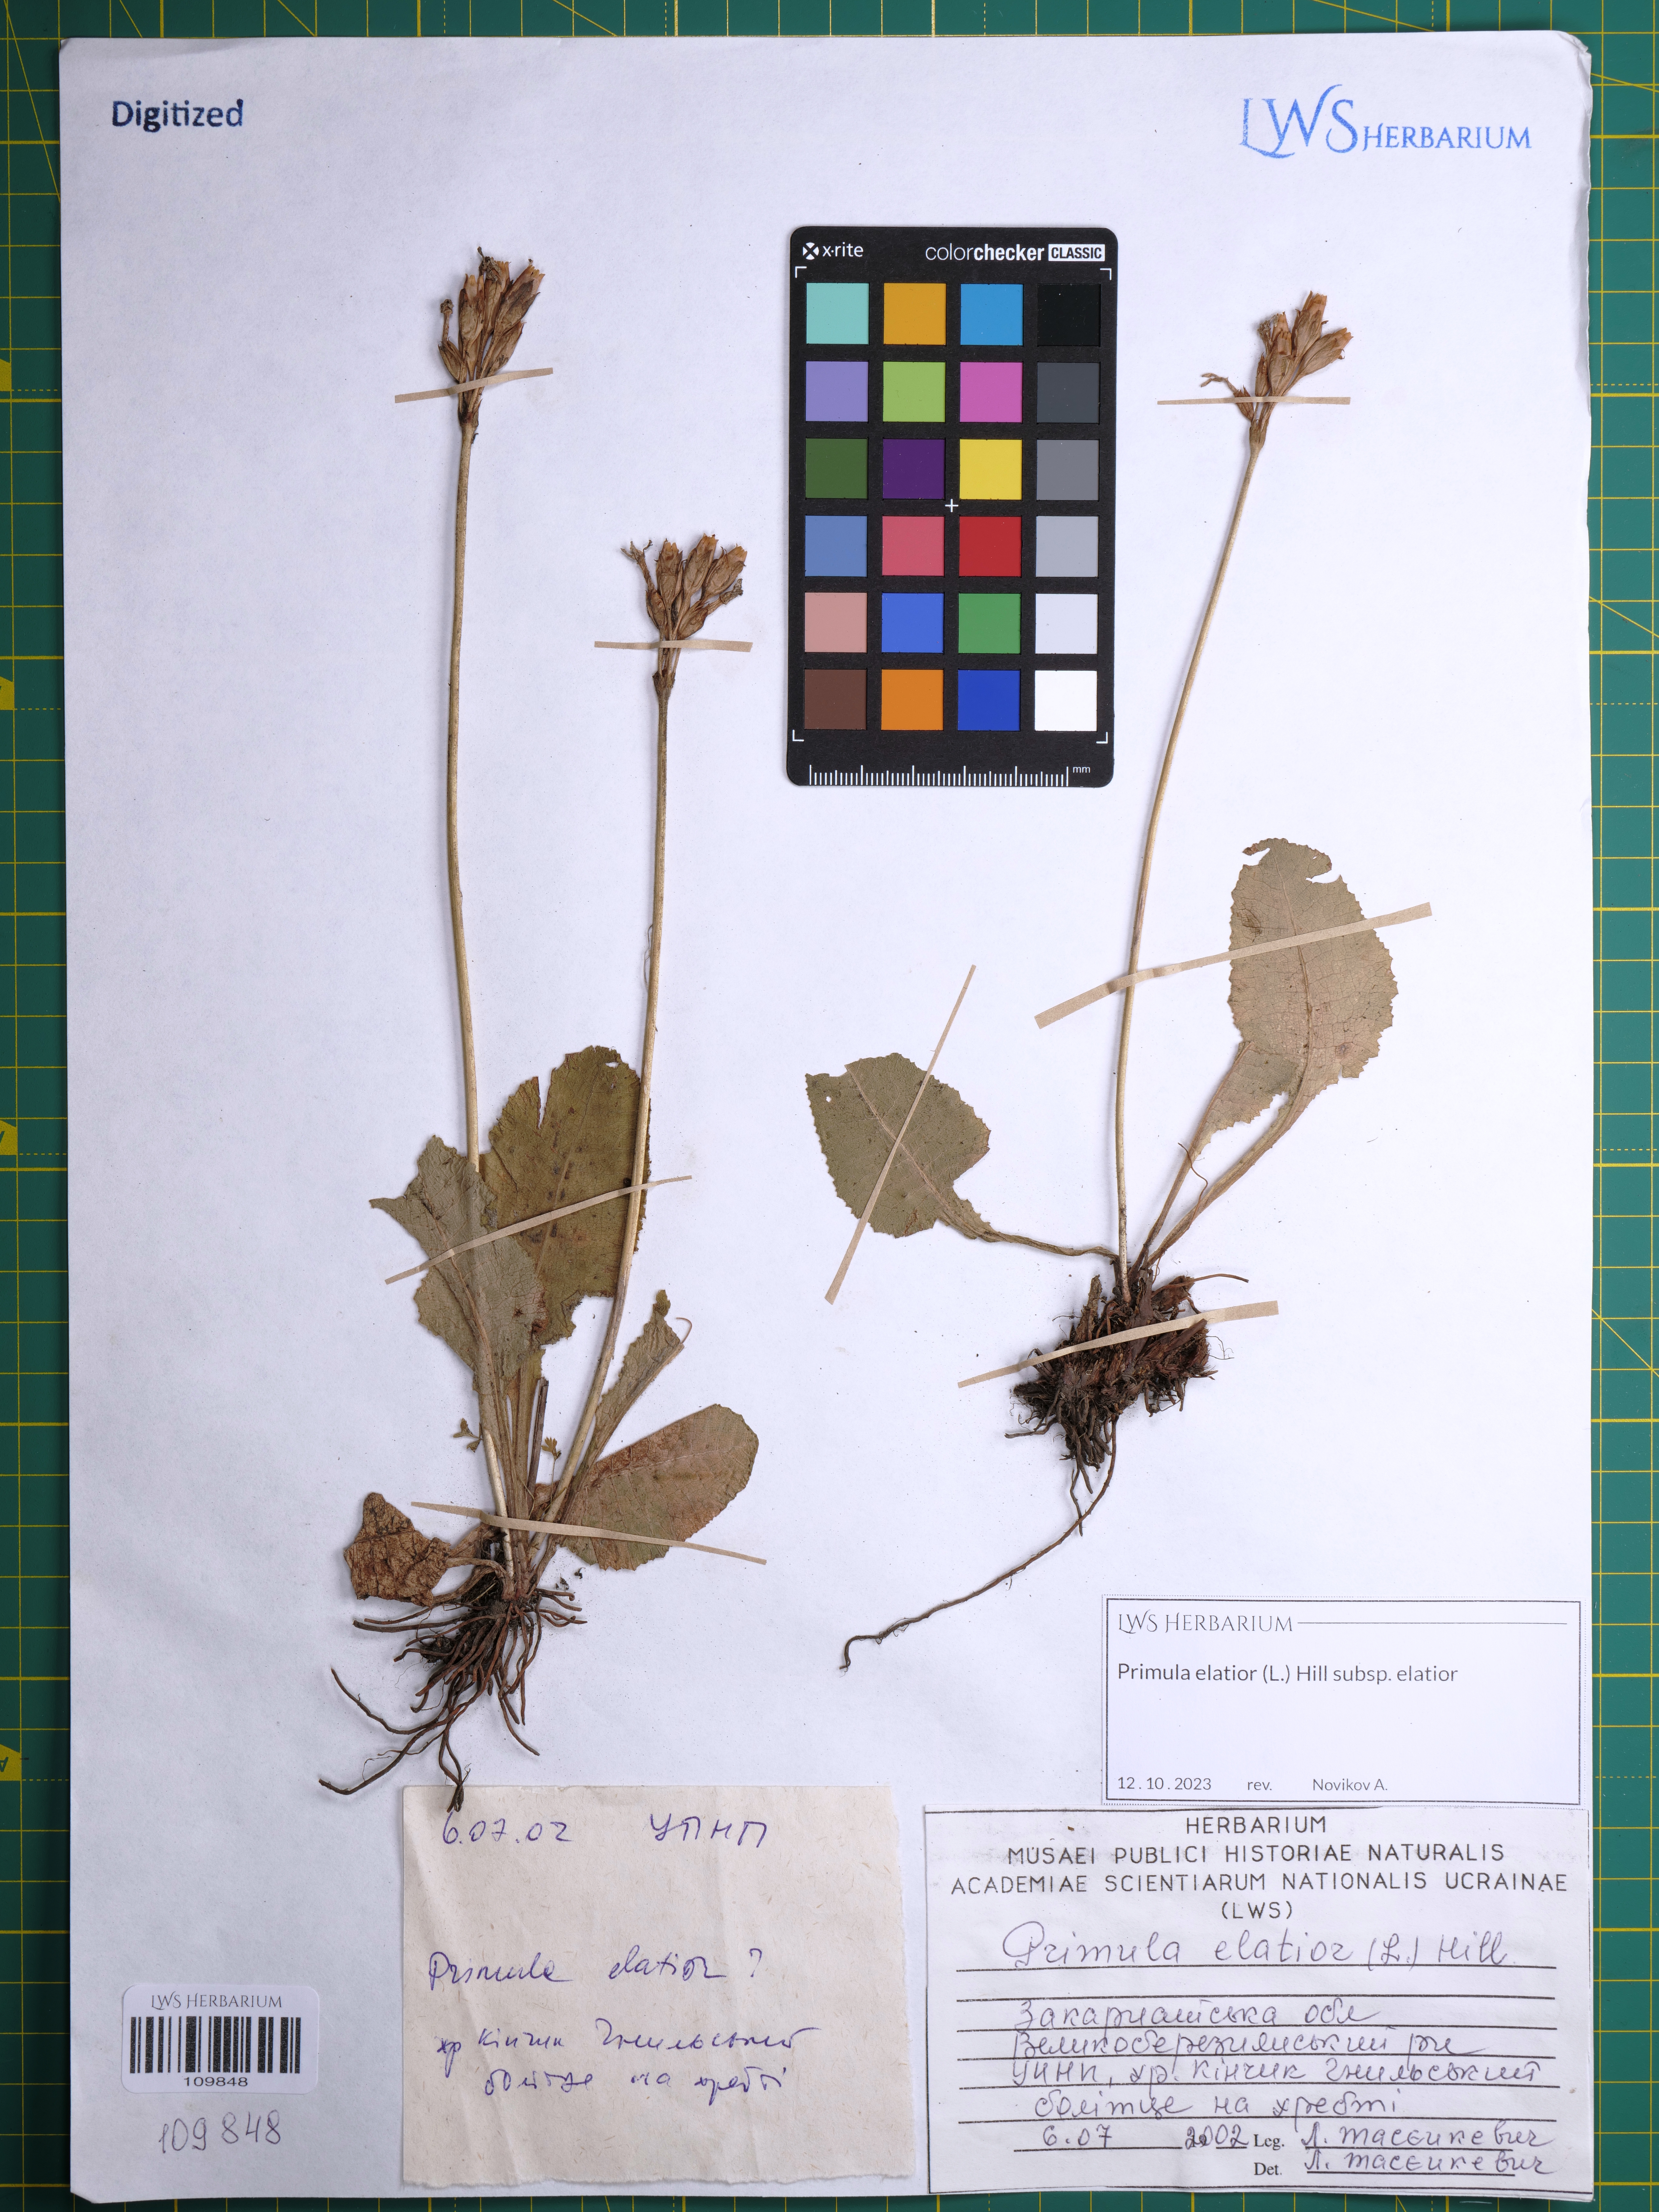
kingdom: Plantae
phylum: Tracheophyta
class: Magnoliopsida
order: Ericales
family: Primulaceae
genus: Primula
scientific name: Primula elatior
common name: Oxlip
